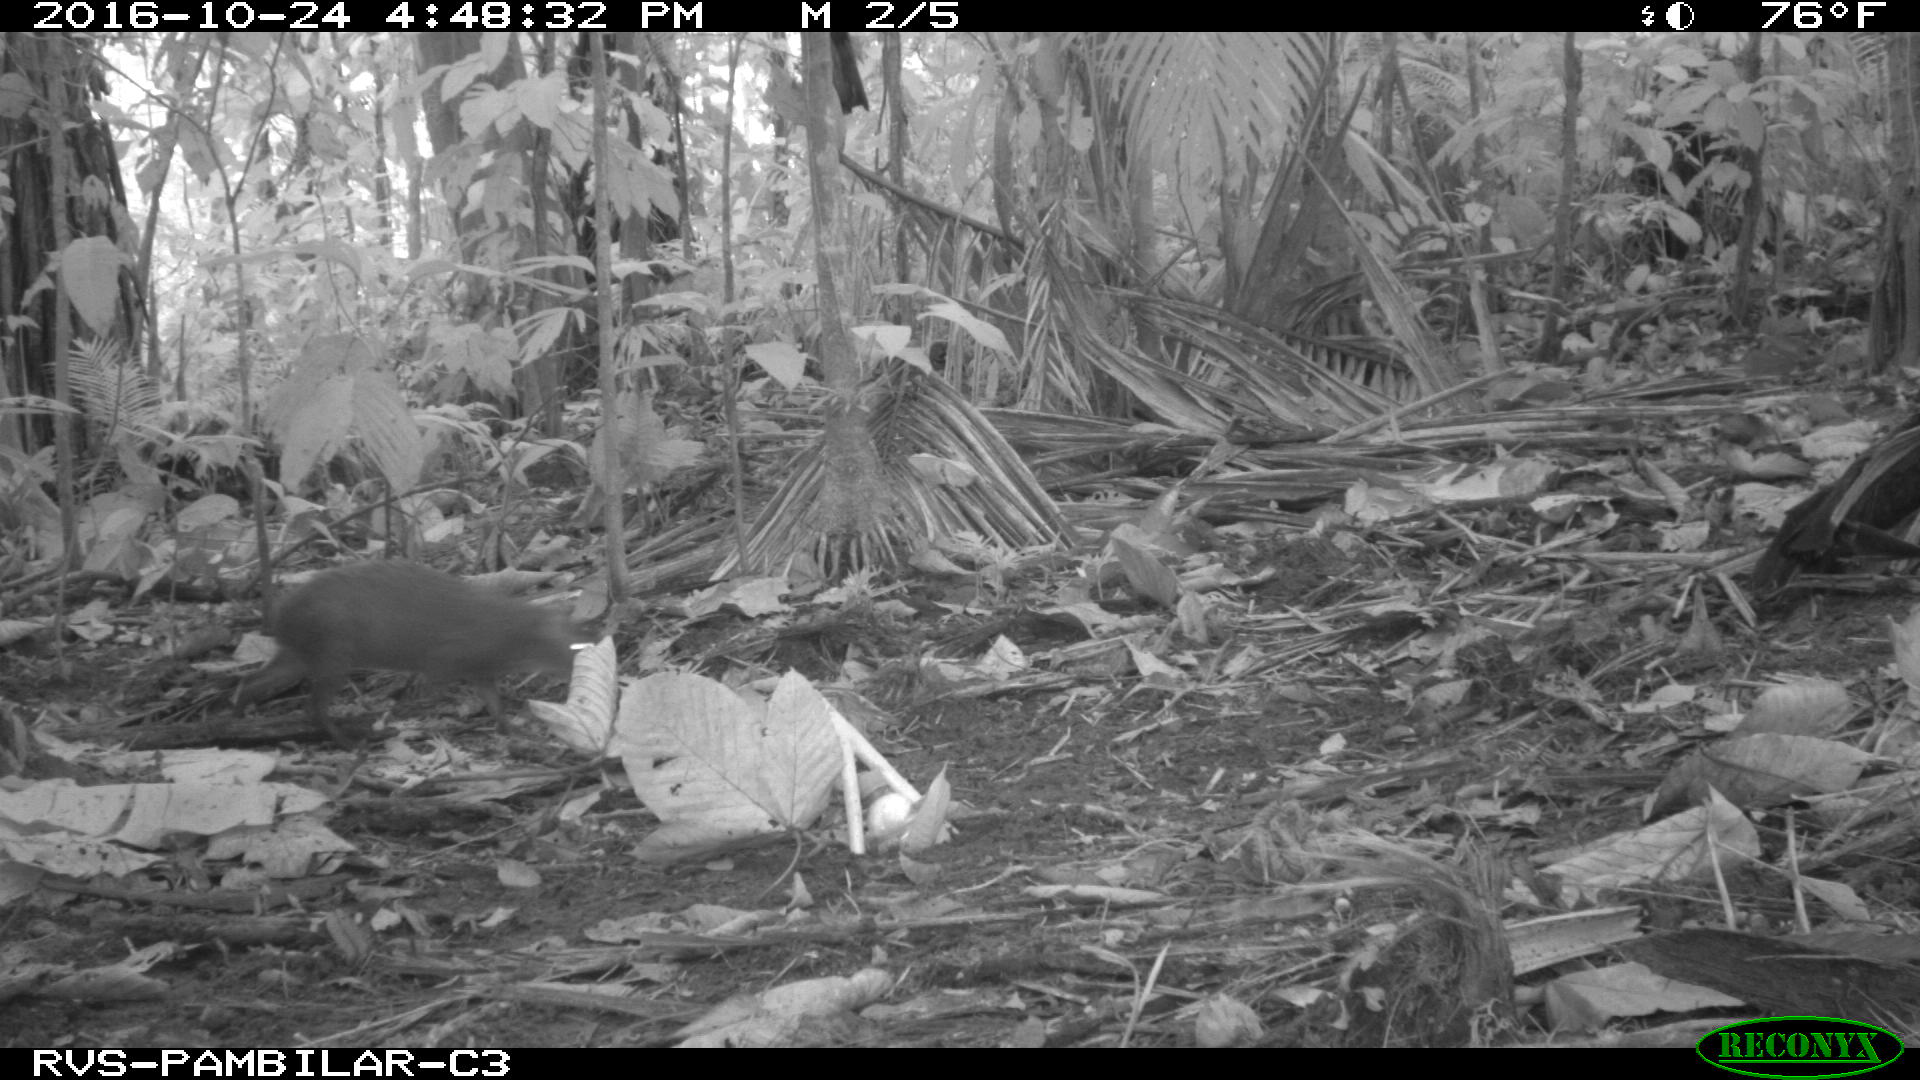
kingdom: Animalia
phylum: Chordata
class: Mammalia
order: Rodentia
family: Dasyproctidae
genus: Dasyprocta
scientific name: Dasyprocta punctata
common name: Central american agouti
